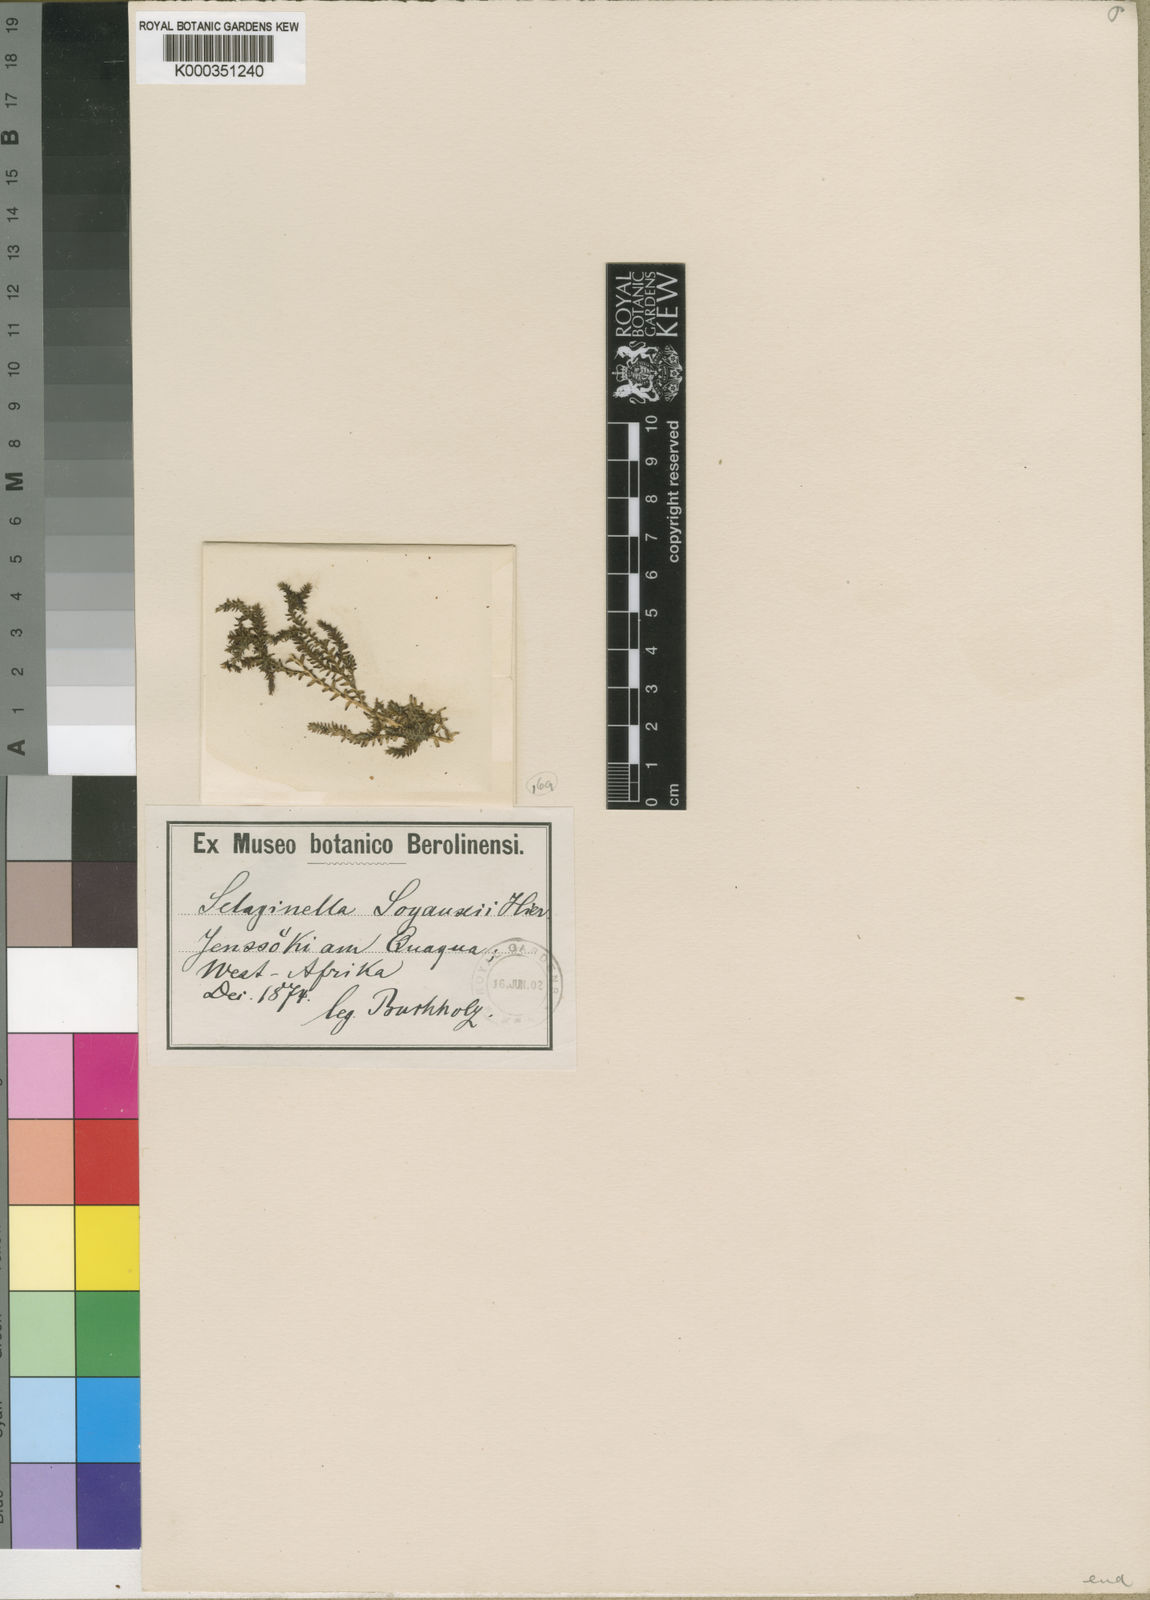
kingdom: Plantae
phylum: Tracheophyta
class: Lycopodiopsida
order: Selaginellales
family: Selaginellaceae
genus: Selaginella
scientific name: Selaginella soyauxii
